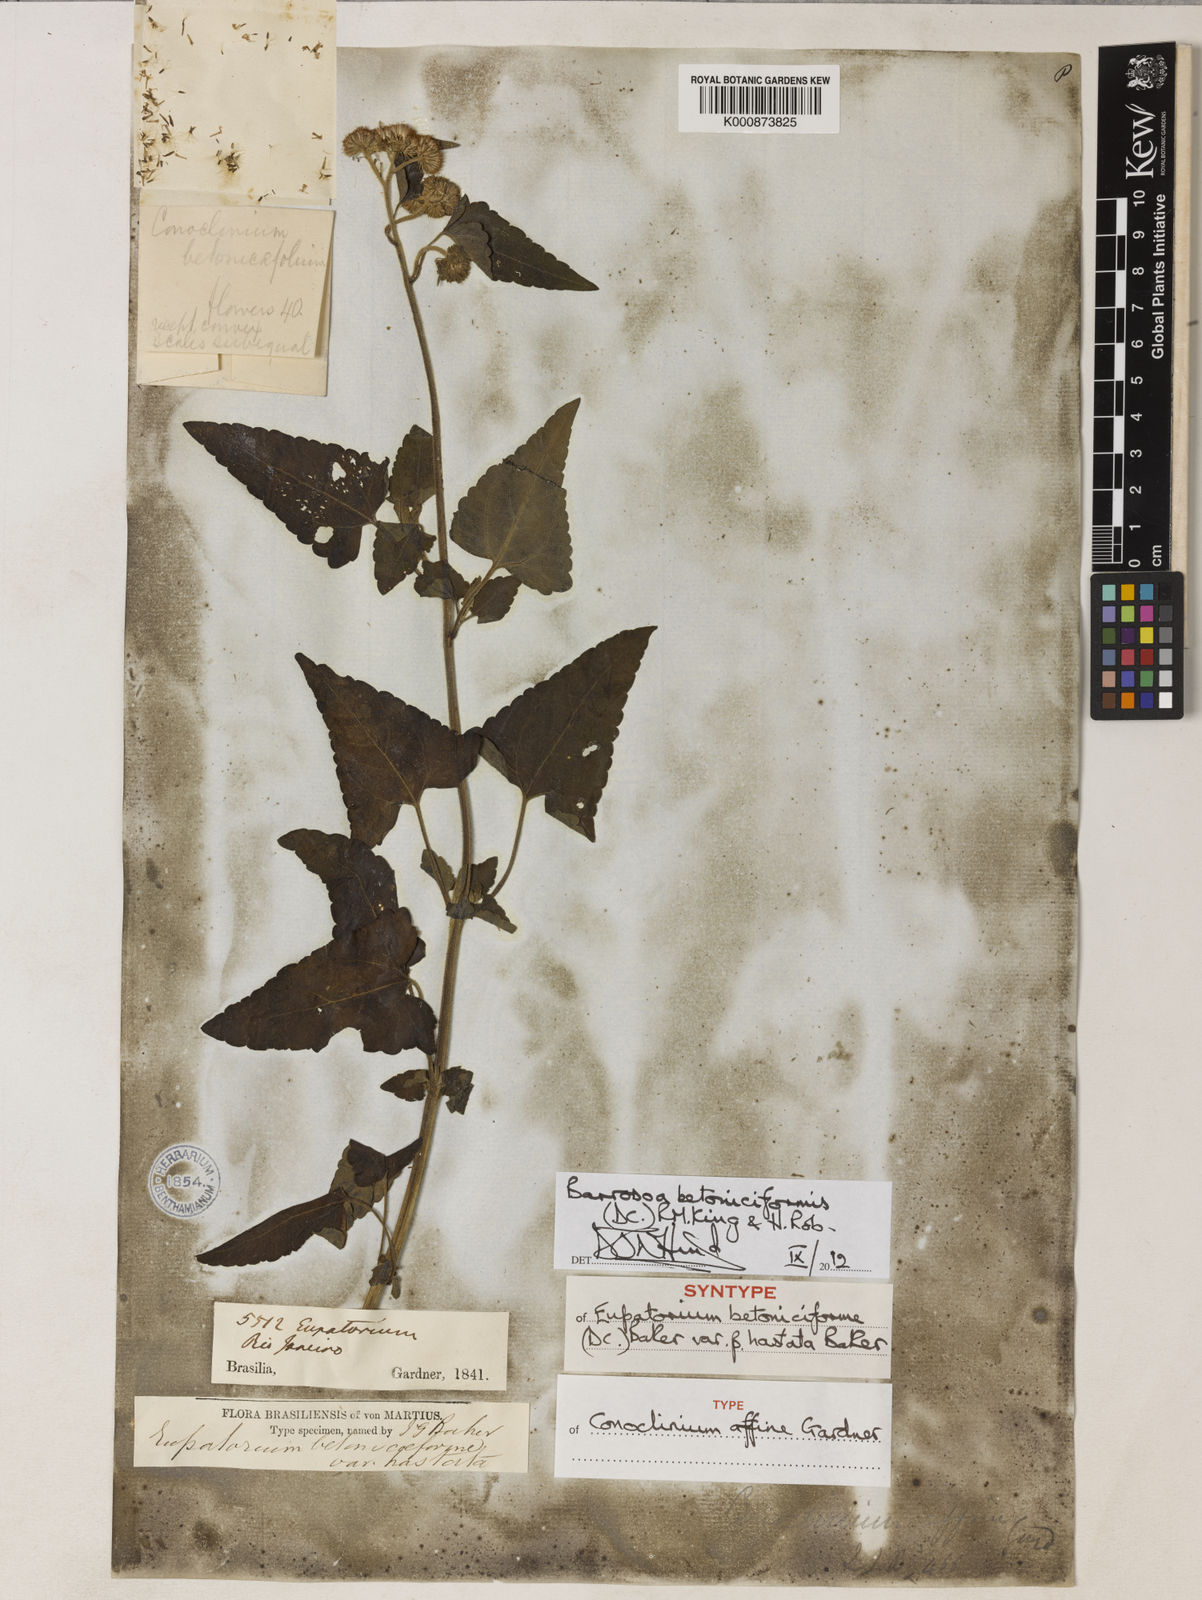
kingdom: Plantae
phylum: Tracheophyta
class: Magnoliopsida
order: Asterales
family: Asteraceae
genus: Barrosoa
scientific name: Barrosoa betoniciformis
